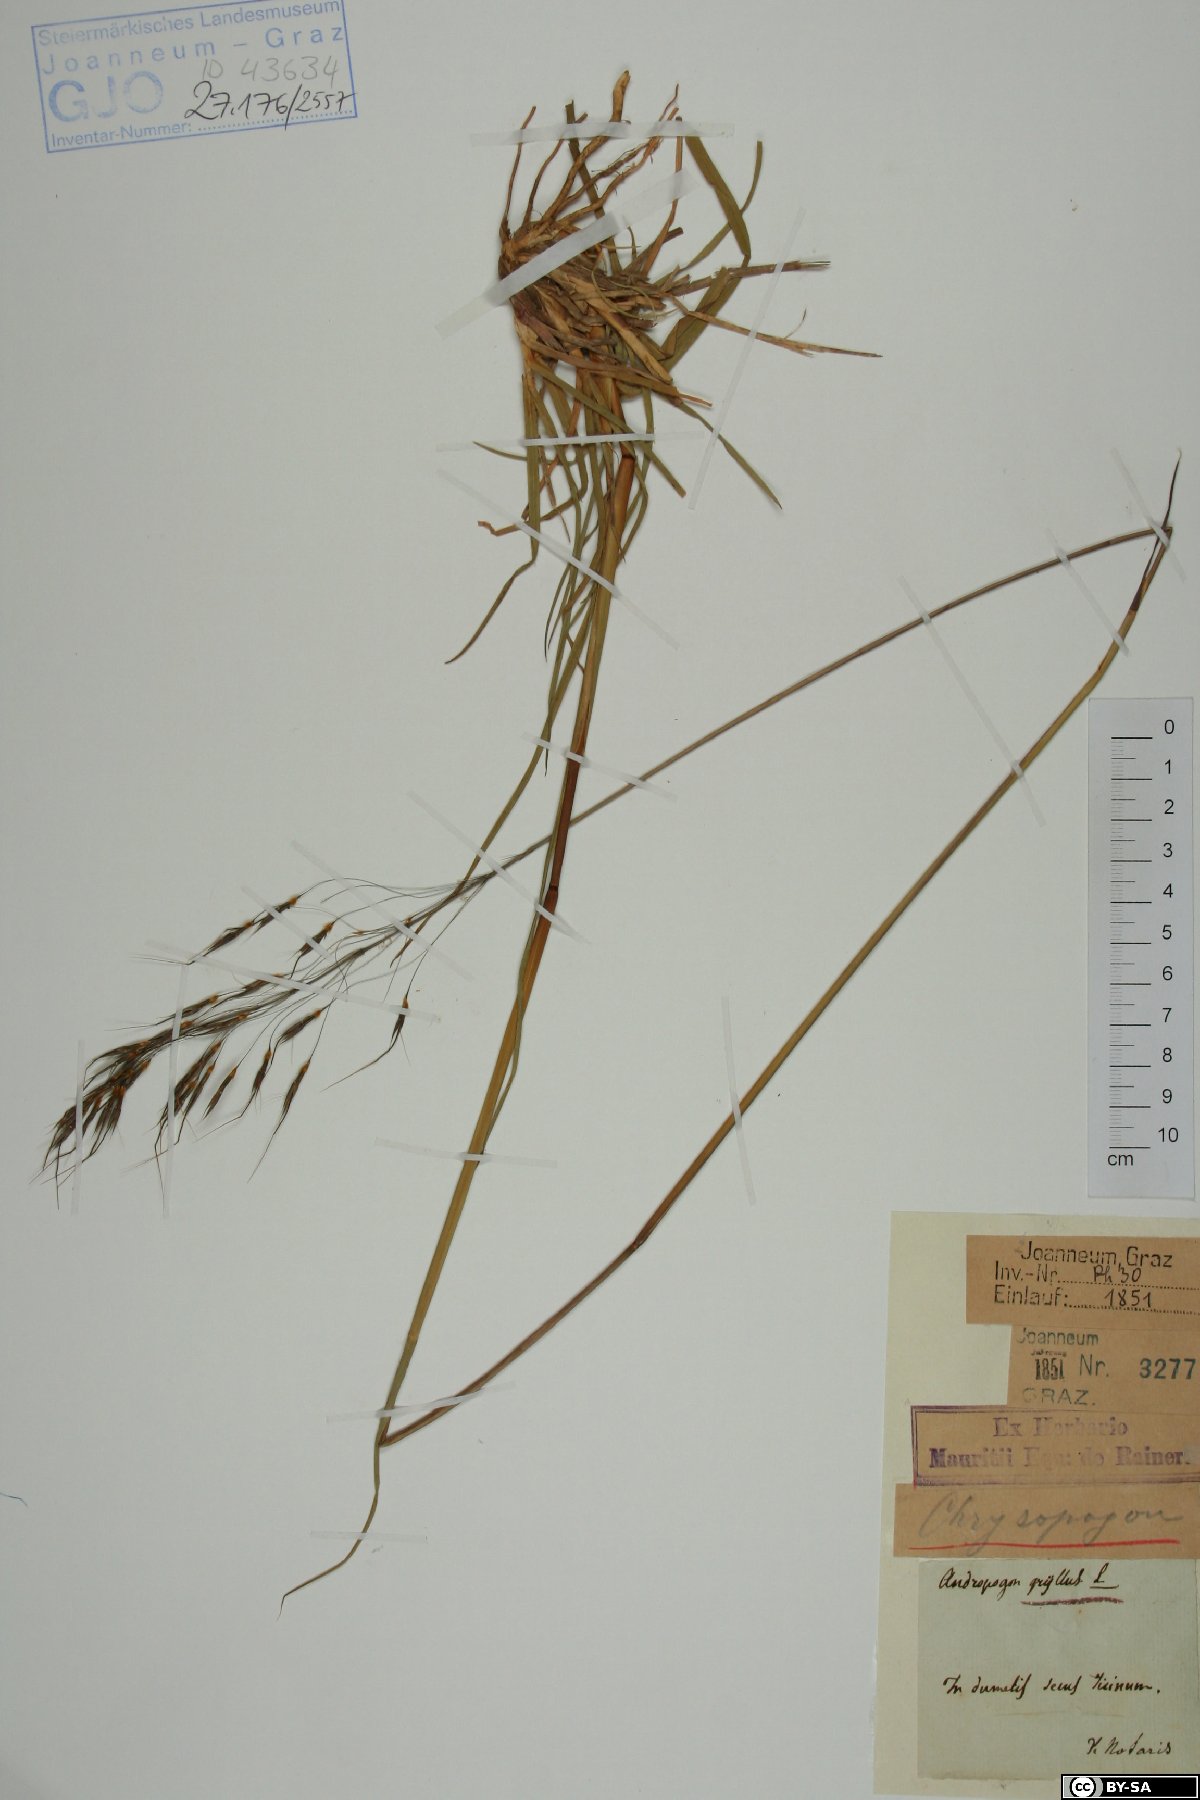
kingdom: Plantae
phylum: Tracheophyta
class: Liliopsida
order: Poales
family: Poaceae
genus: Chrysopogon
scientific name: Chrysopogon gryllus
